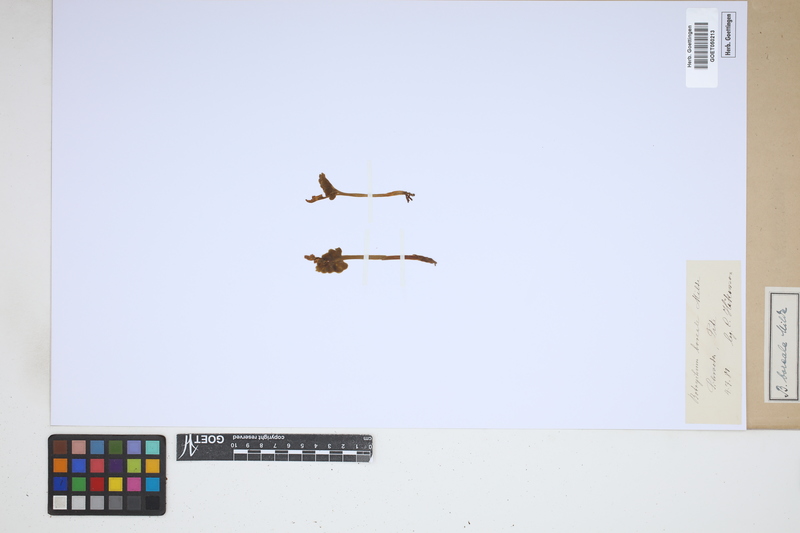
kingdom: Plantae
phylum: Tracheophyta
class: Polypodiopsida
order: Ophioglossales
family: Ophioglossaceae
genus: Botrychium
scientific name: Botrychium boreale
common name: Boreal moonwort
